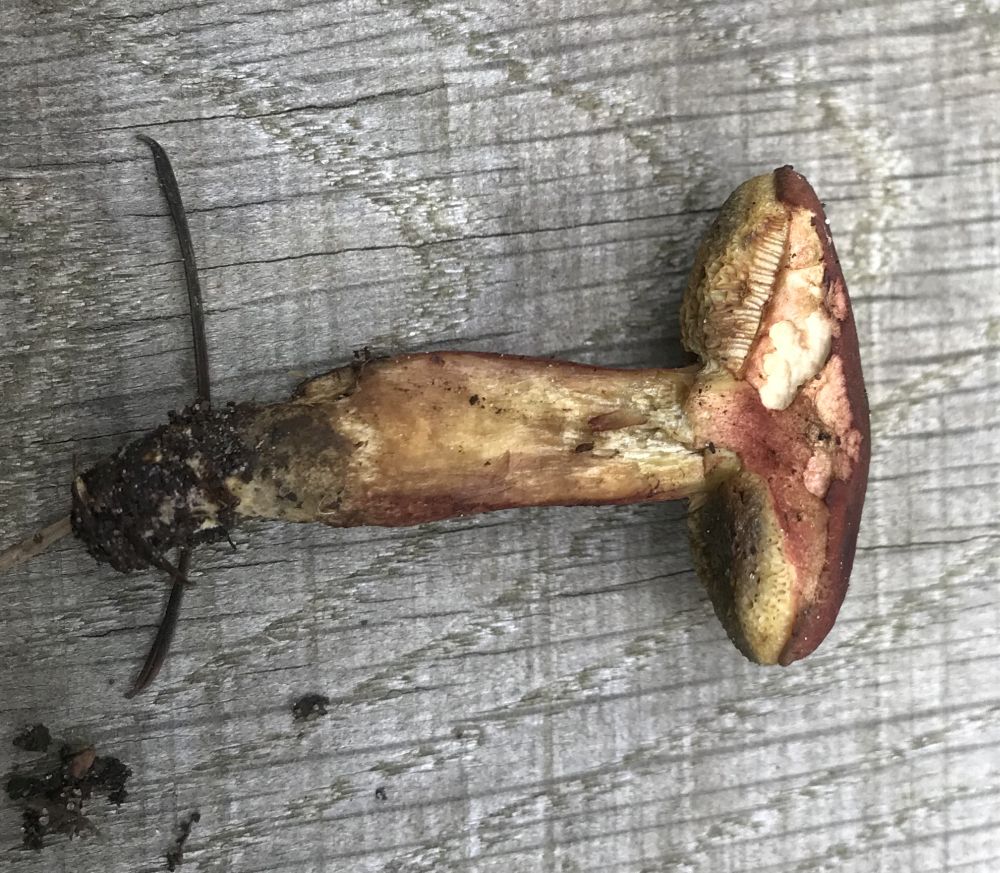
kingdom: Fungi
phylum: Basidiomycota
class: Agaricomycetes
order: Boletales
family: Boletaceae
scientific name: Boletaceae
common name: rørhatfamilien
